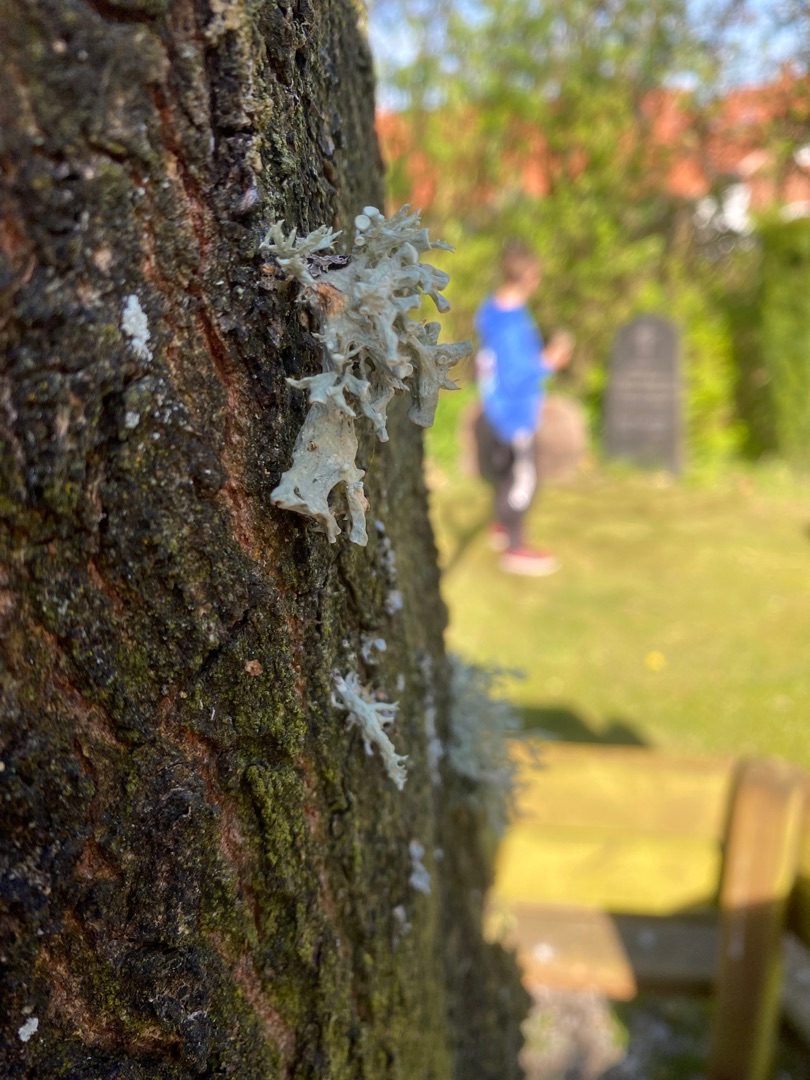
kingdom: Fungi
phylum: Ascomycota
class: Lecanoromycetes
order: Lecanorales
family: Ramalinaceae
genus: Ramalina
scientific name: Ramalina fastigiata
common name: Tue-grenlav
